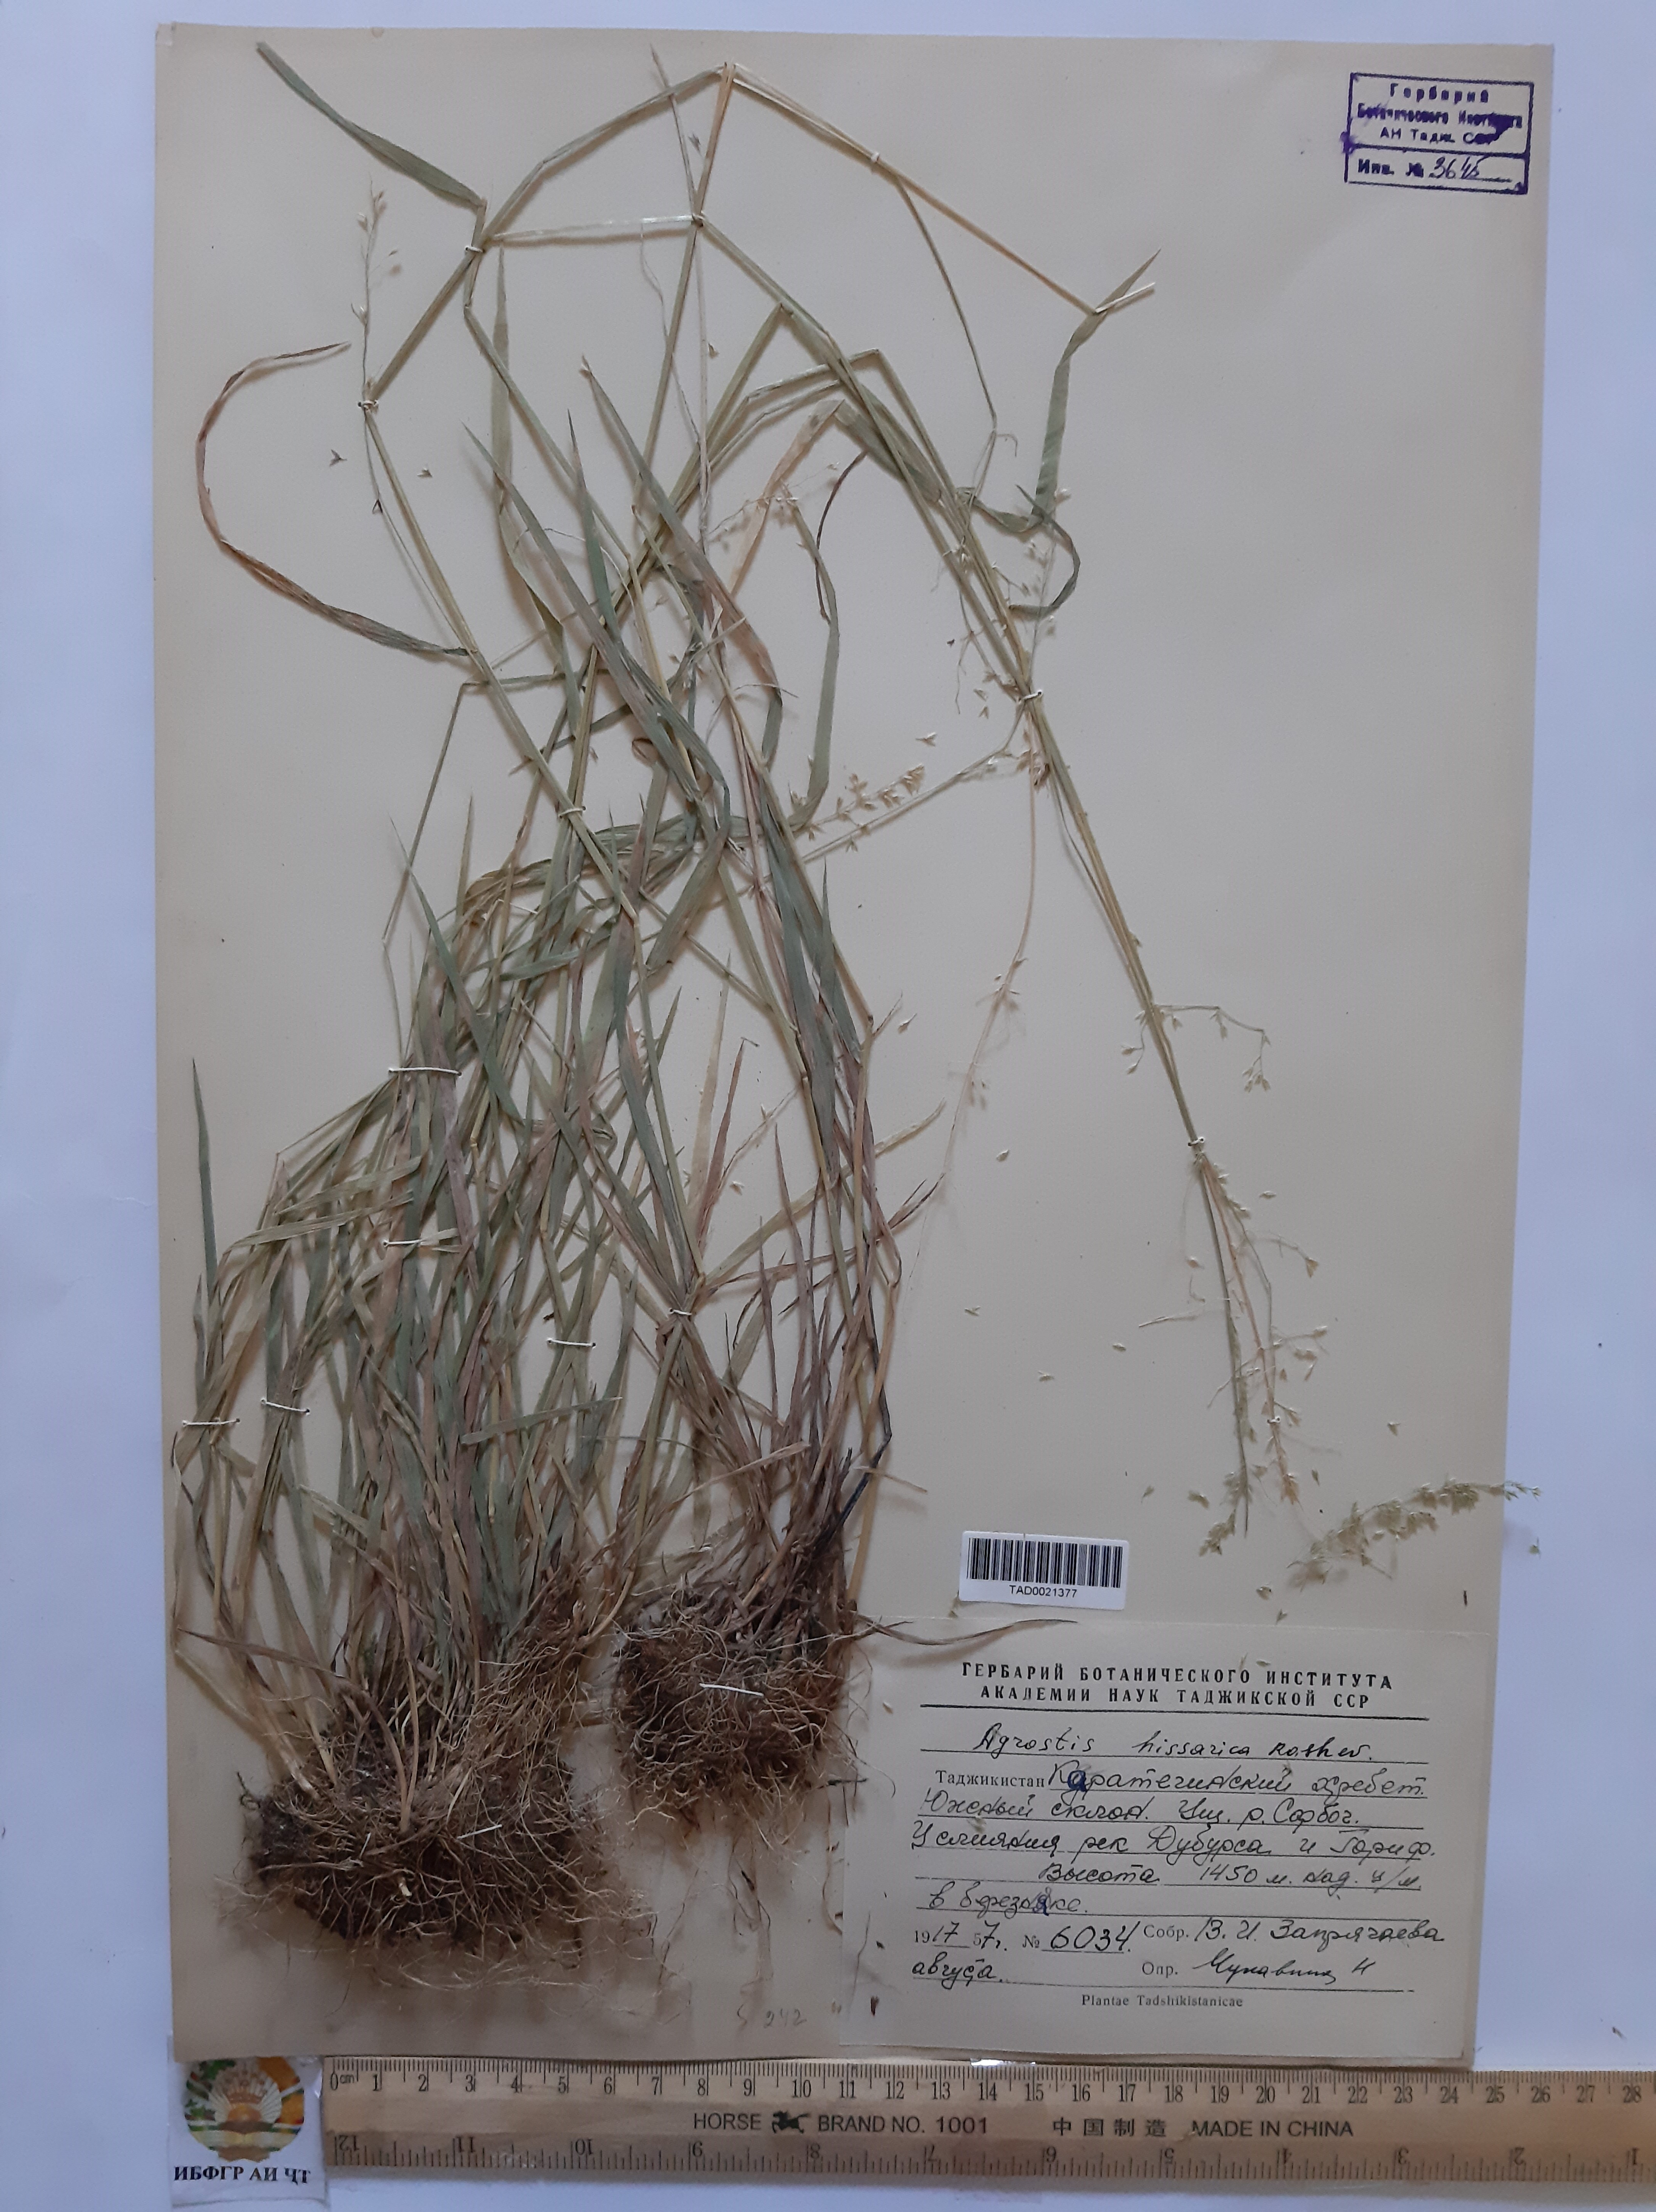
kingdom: Plantae
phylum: Tracheophyta
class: Liliopsida
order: Poales
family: Poaceae
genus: Polypogon
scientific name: Polypogon hissaricus
